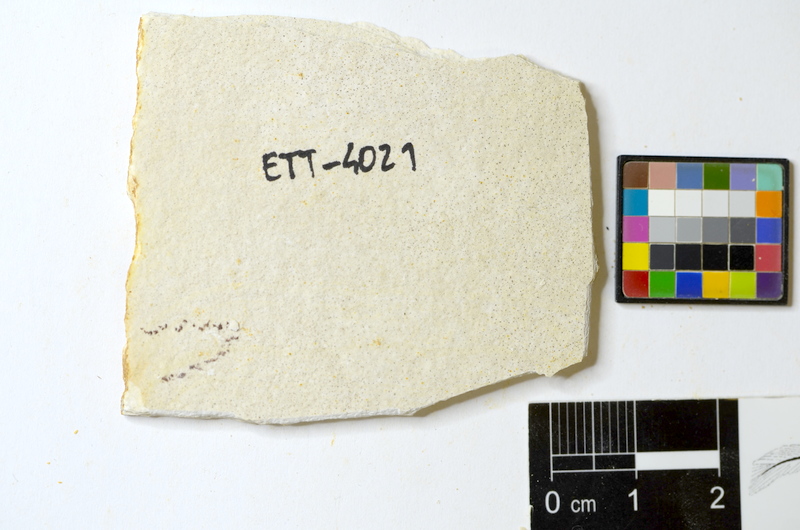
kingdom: Animalia
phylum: Chordata
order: Salmoniformes
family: Orthogonikleithridae
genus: Orthogonikleithrus
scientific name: Orthogonikleithrus hoelli
